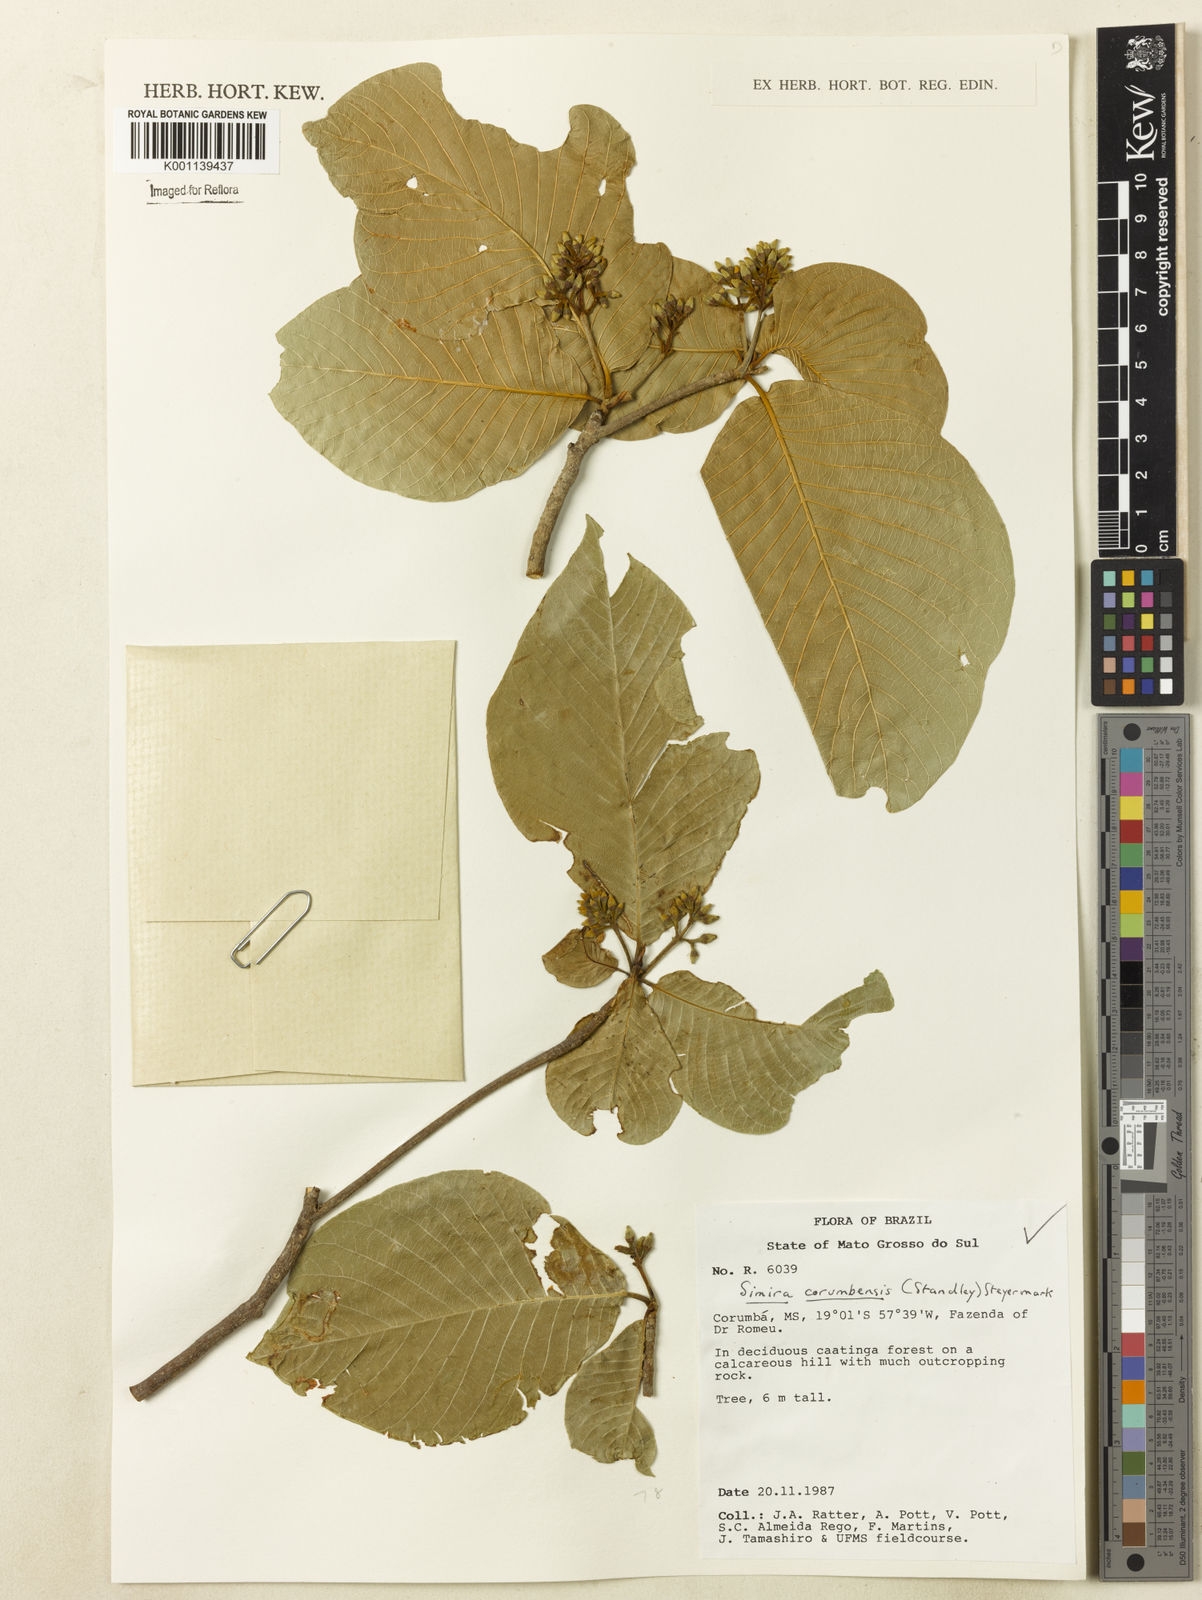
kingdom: Plantae
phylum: Tracheophyta
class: Magnoliopsida
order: Gentianales
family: Rubiaceae
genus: Simira
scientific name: Simira corumbensis
